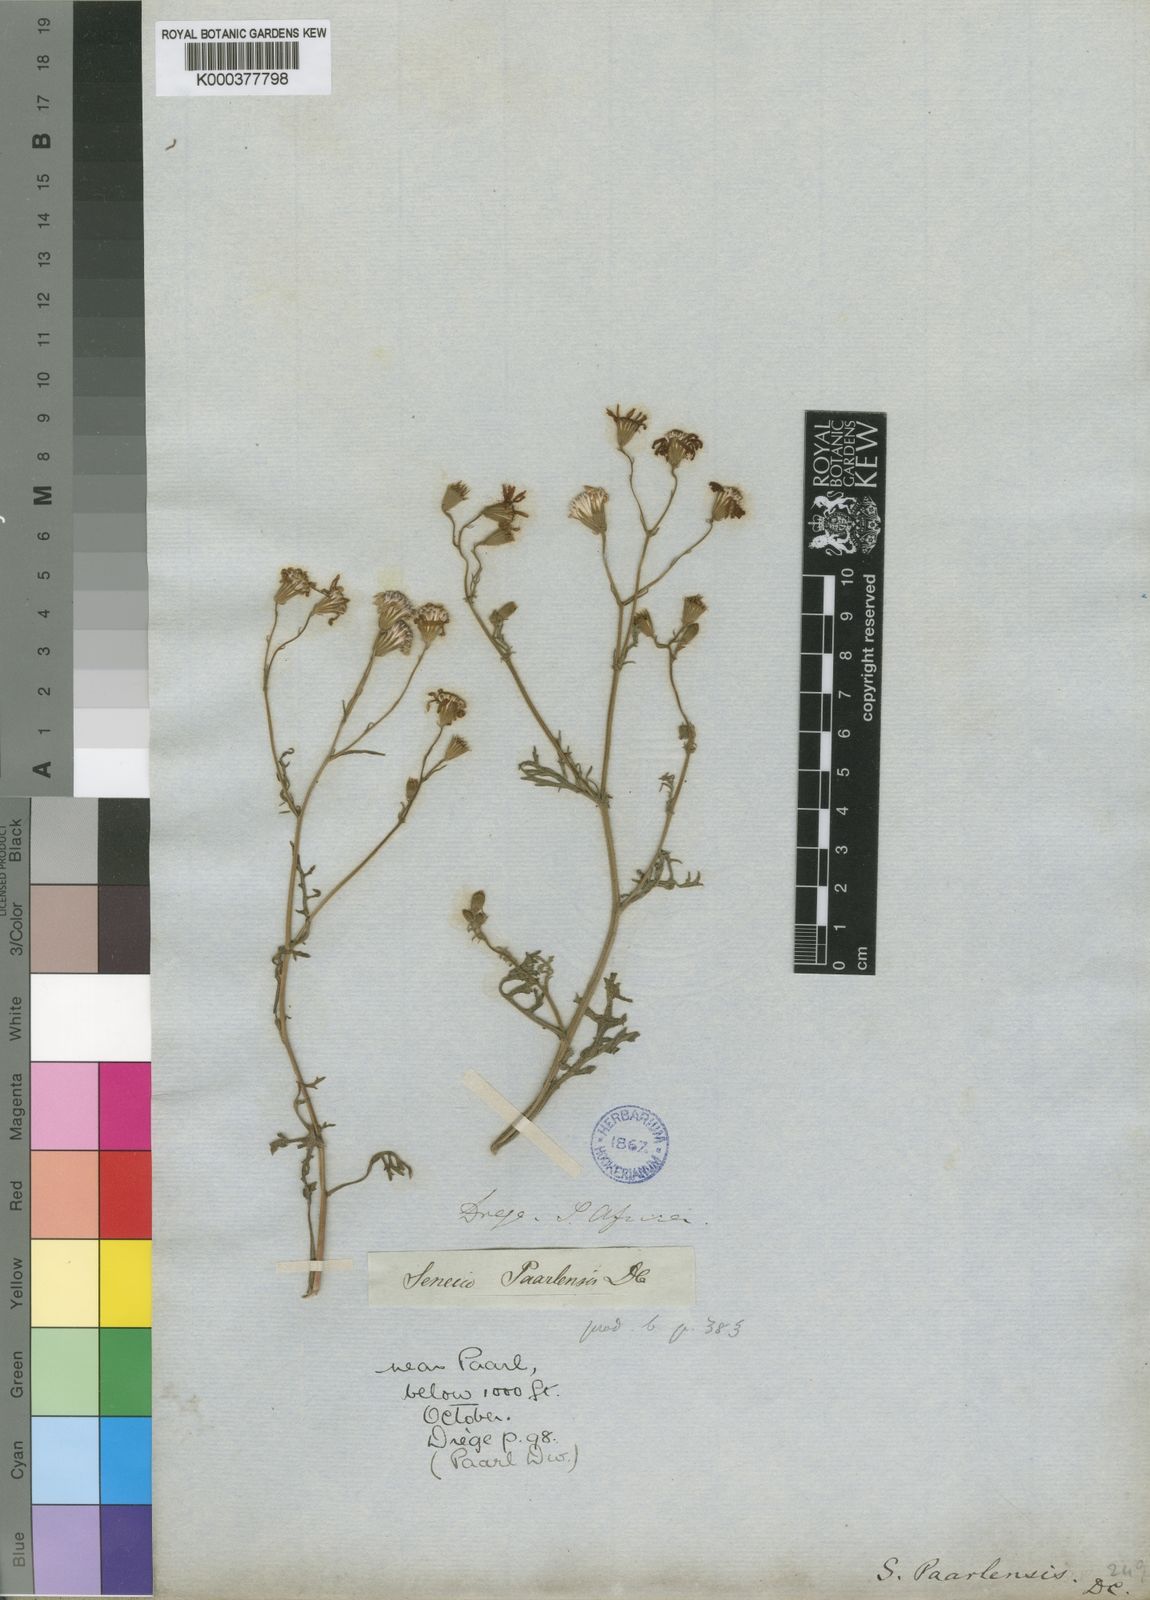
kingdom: Plantae
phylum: Tracheophyta
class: Magnoliopsida
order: Asterales
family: Asteraceae
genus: Senecio
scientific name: Senecio paarlensis
